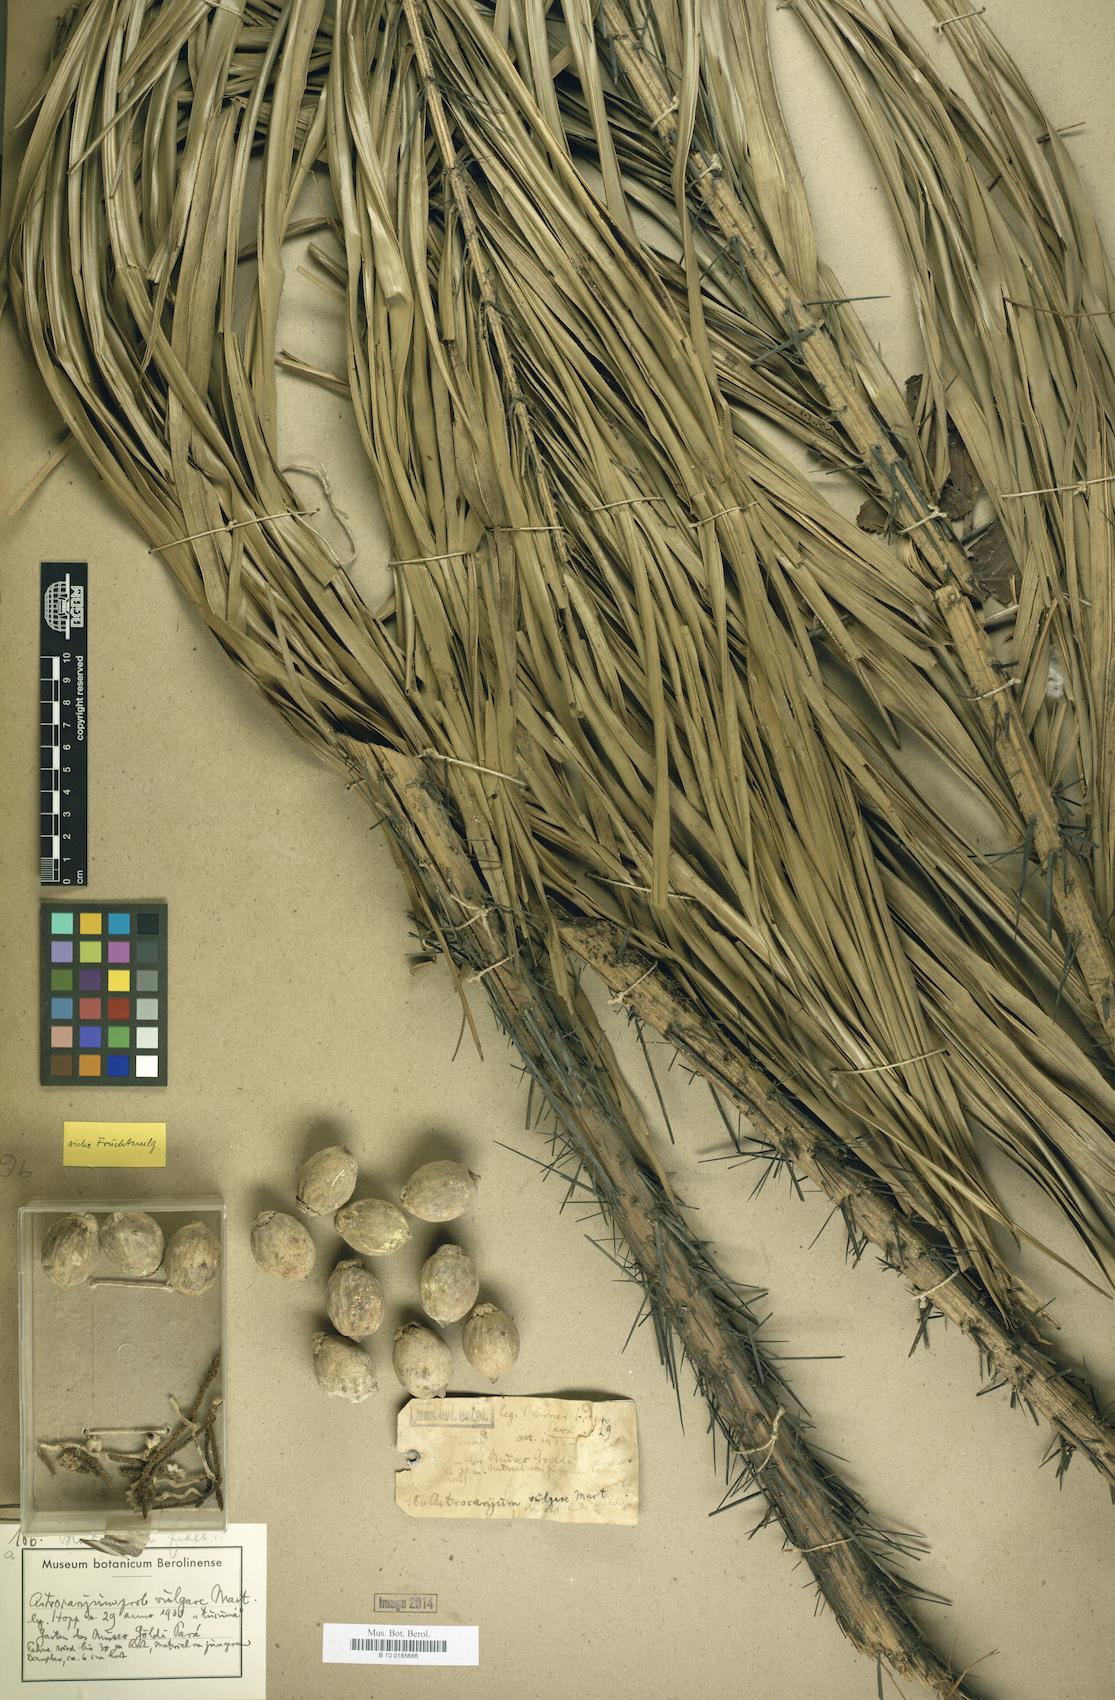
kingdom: Plantae
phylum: Tracheophyta
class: Liliopsida
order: Arecales
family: Arecaceae
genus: Astrocaryum
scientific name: Astrocaryum vulgare
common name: Tucum palm
